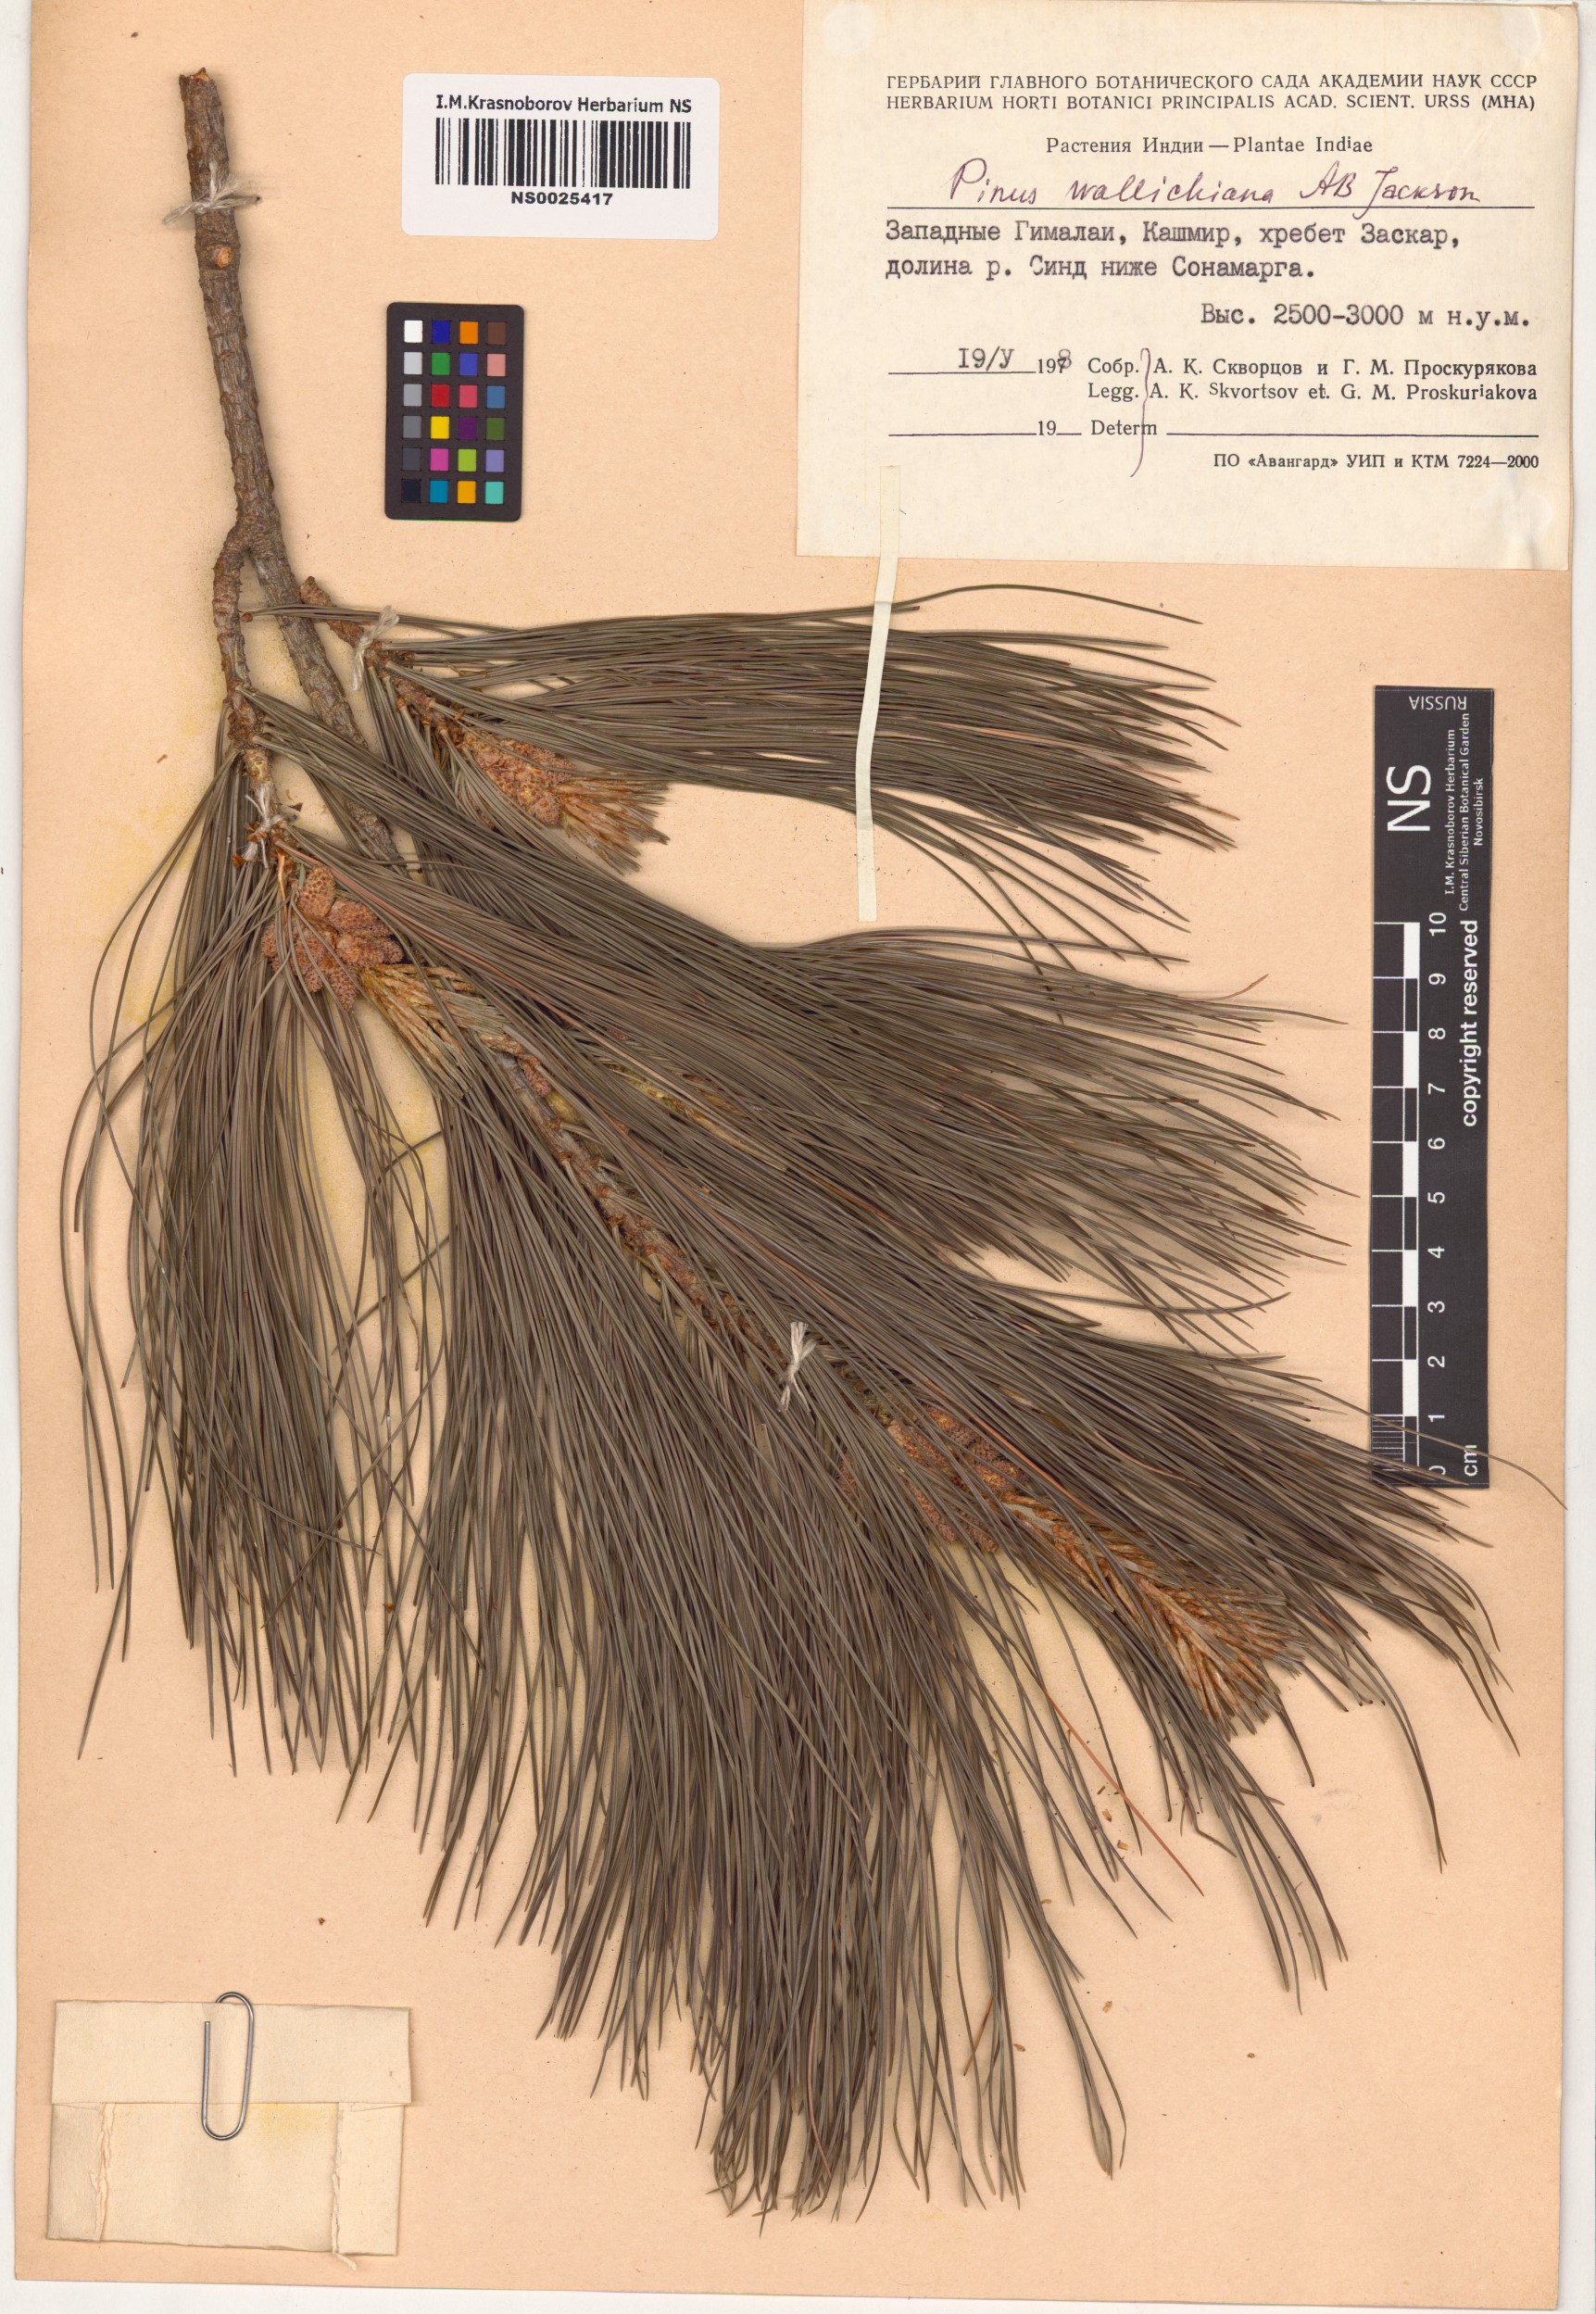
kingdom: Plantae
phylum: Tracheophyta
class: Pinopsida
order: Pinales
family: Pinaceae
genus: Pinus
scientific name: Pinus wallichiana
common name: Bhutan pine
